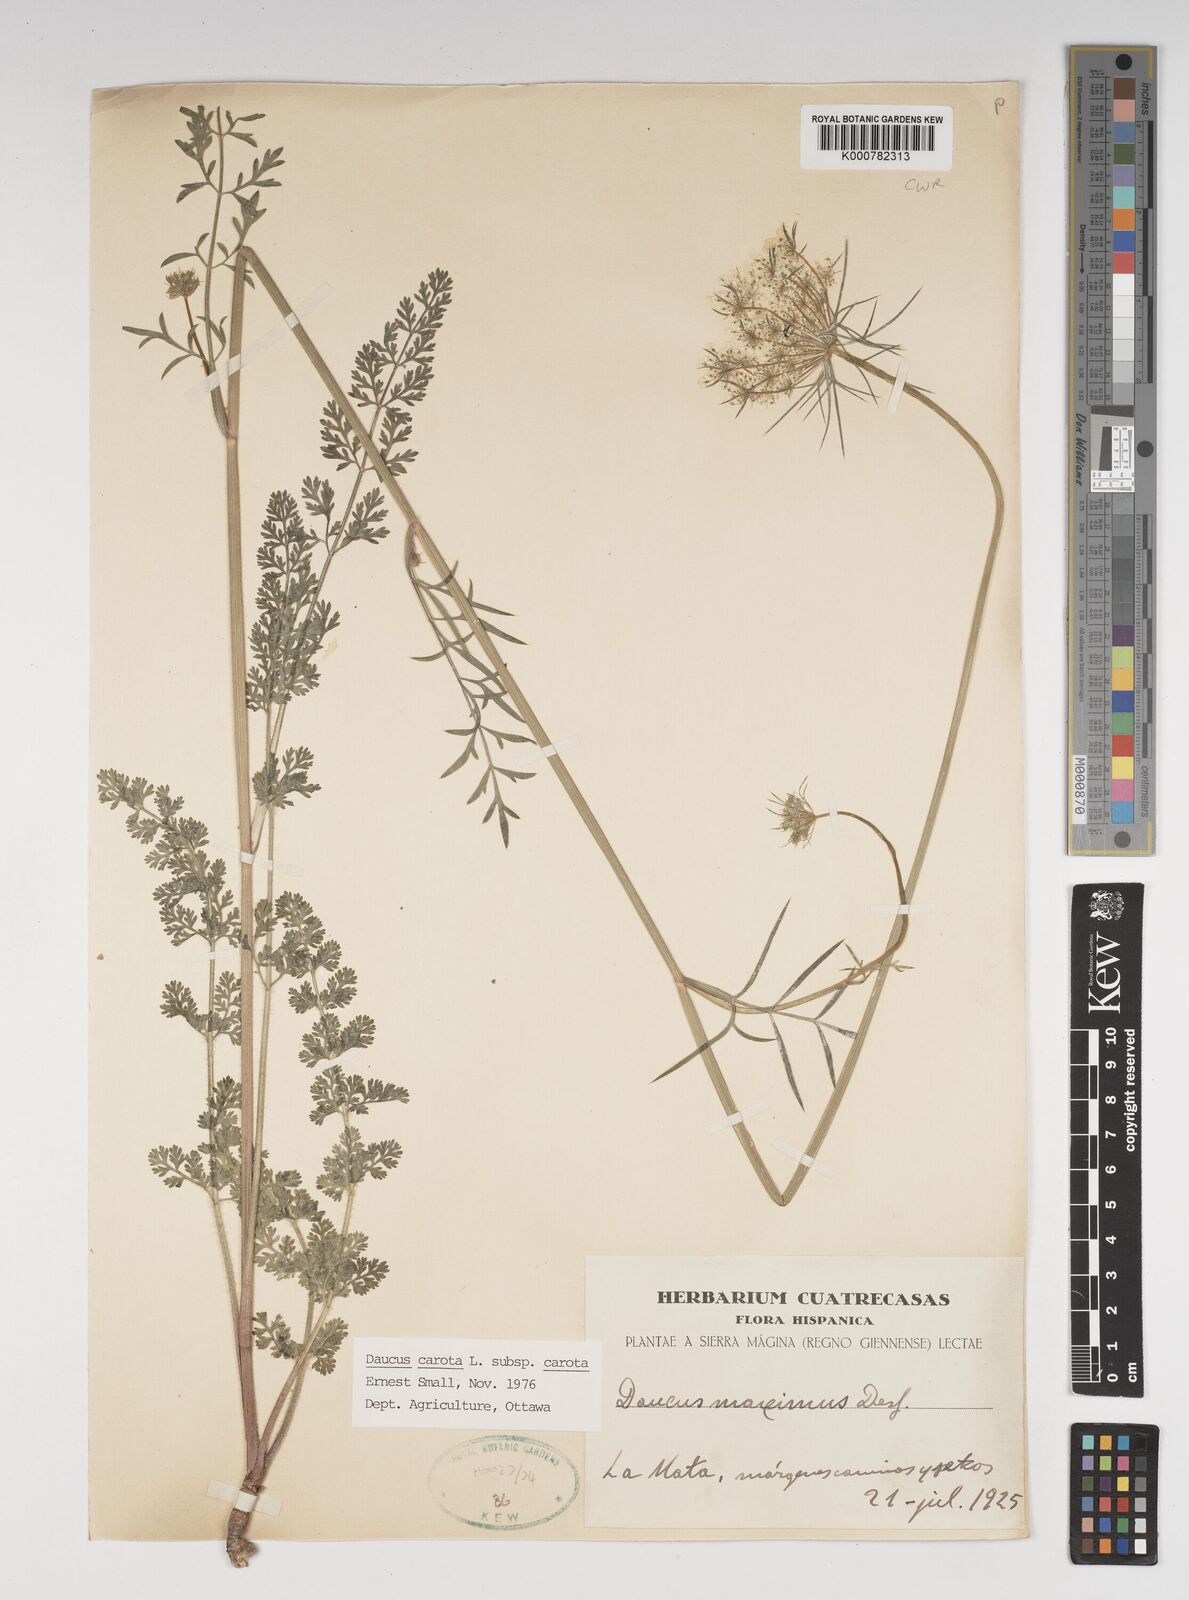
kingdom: Plantae
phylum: Tracheophyta
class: Magnoliopsida
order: Apiales
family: Apiaceae
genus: Daucus
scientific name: Daucus carota
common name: Wild carrot
